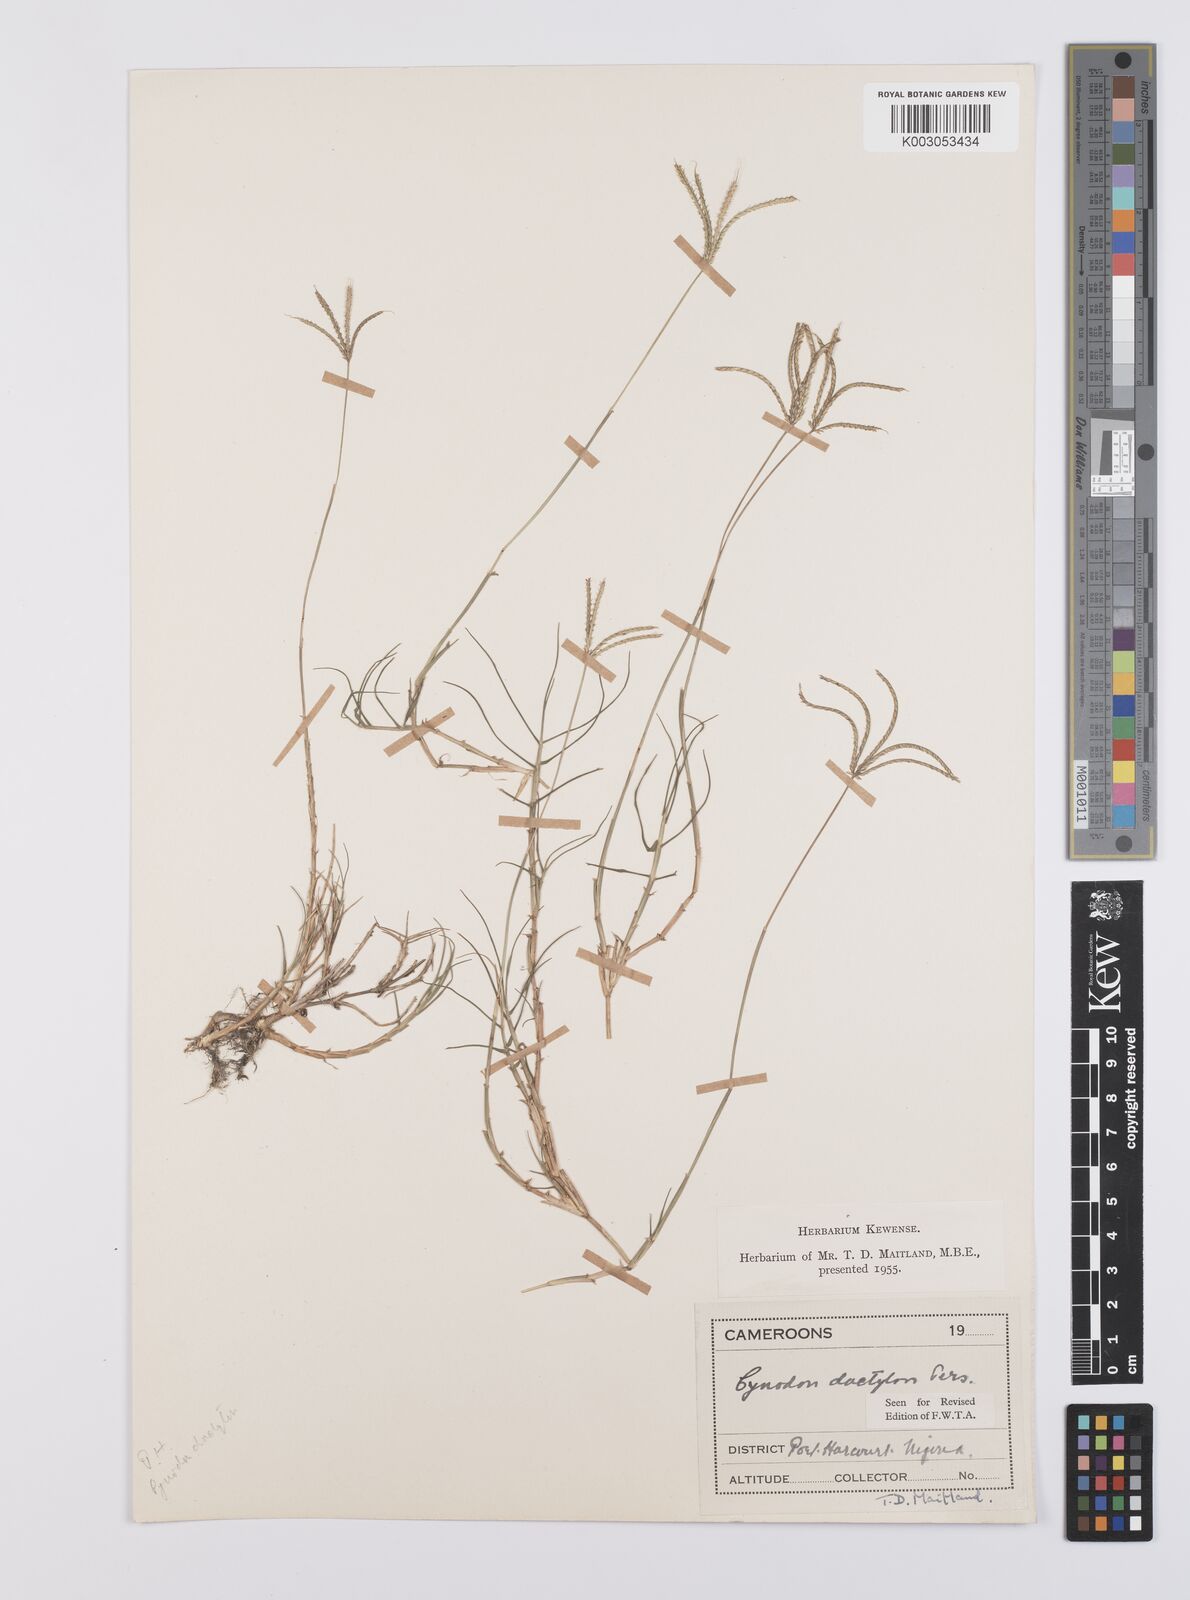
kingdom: Plantae
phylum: Tracheophyta
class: Liliopsida
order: Poales
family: Poaceae
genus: Cynodon
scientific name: Cynodon dactylon
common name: Bermuda grass
